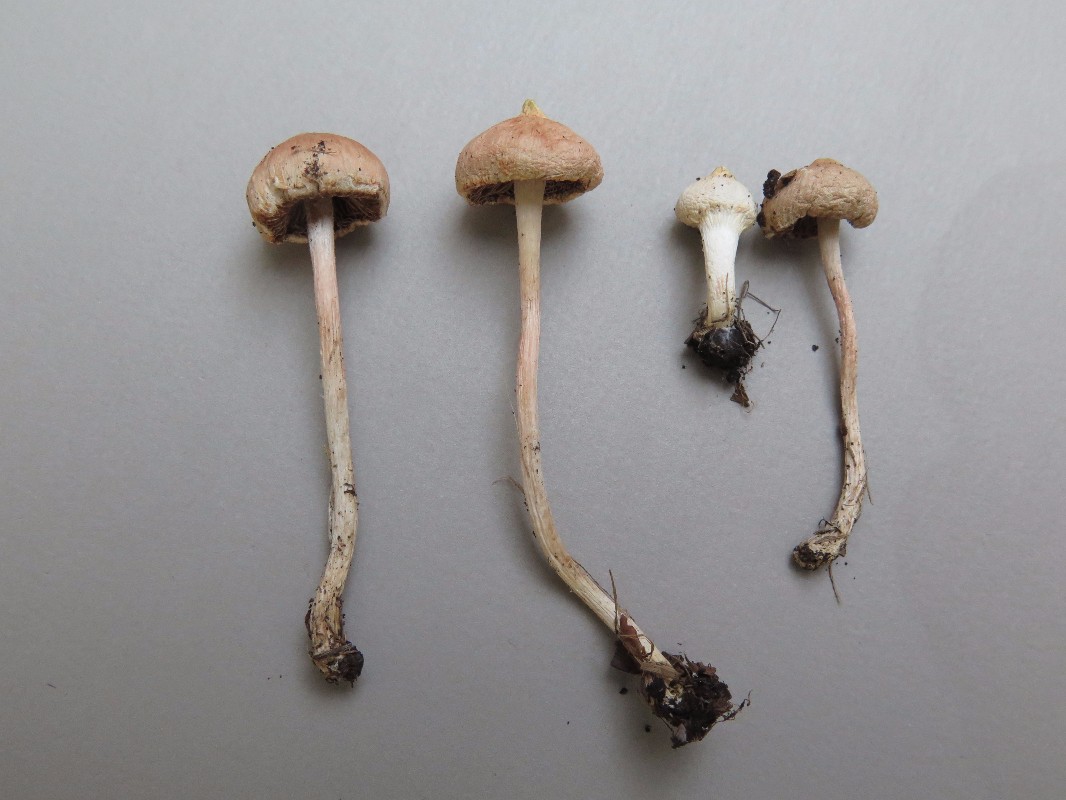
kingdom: Fungi
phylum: Basidiomycota
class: Agaricomycetes
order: Agaricales
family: Inocybaceae
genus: Inocybe
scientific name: Inocybe
